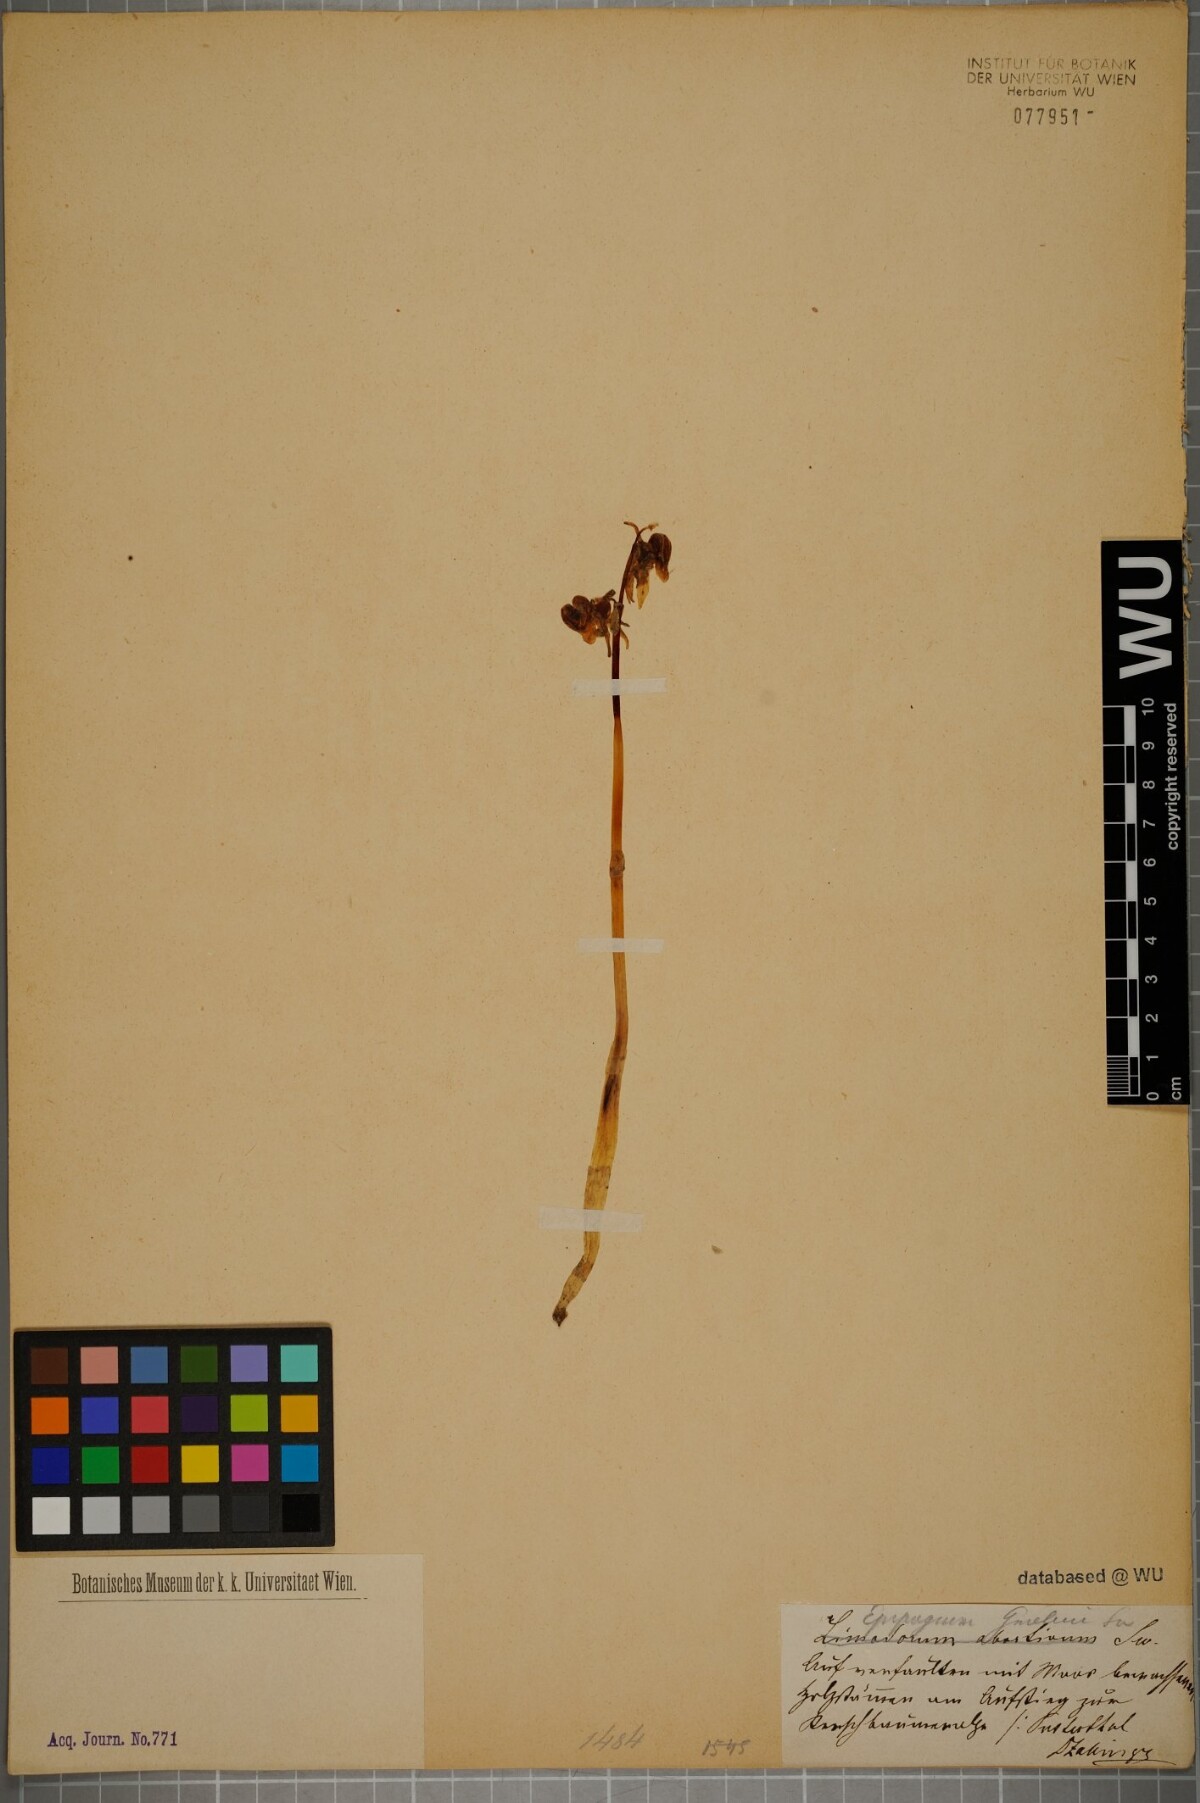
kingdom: Plantae
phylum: Tracheophyta
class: Liliopsida
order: Asparagales
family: Orchidaceae
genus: Epipogium
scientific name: Epipogium aphyllum
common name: Ghost orchid
